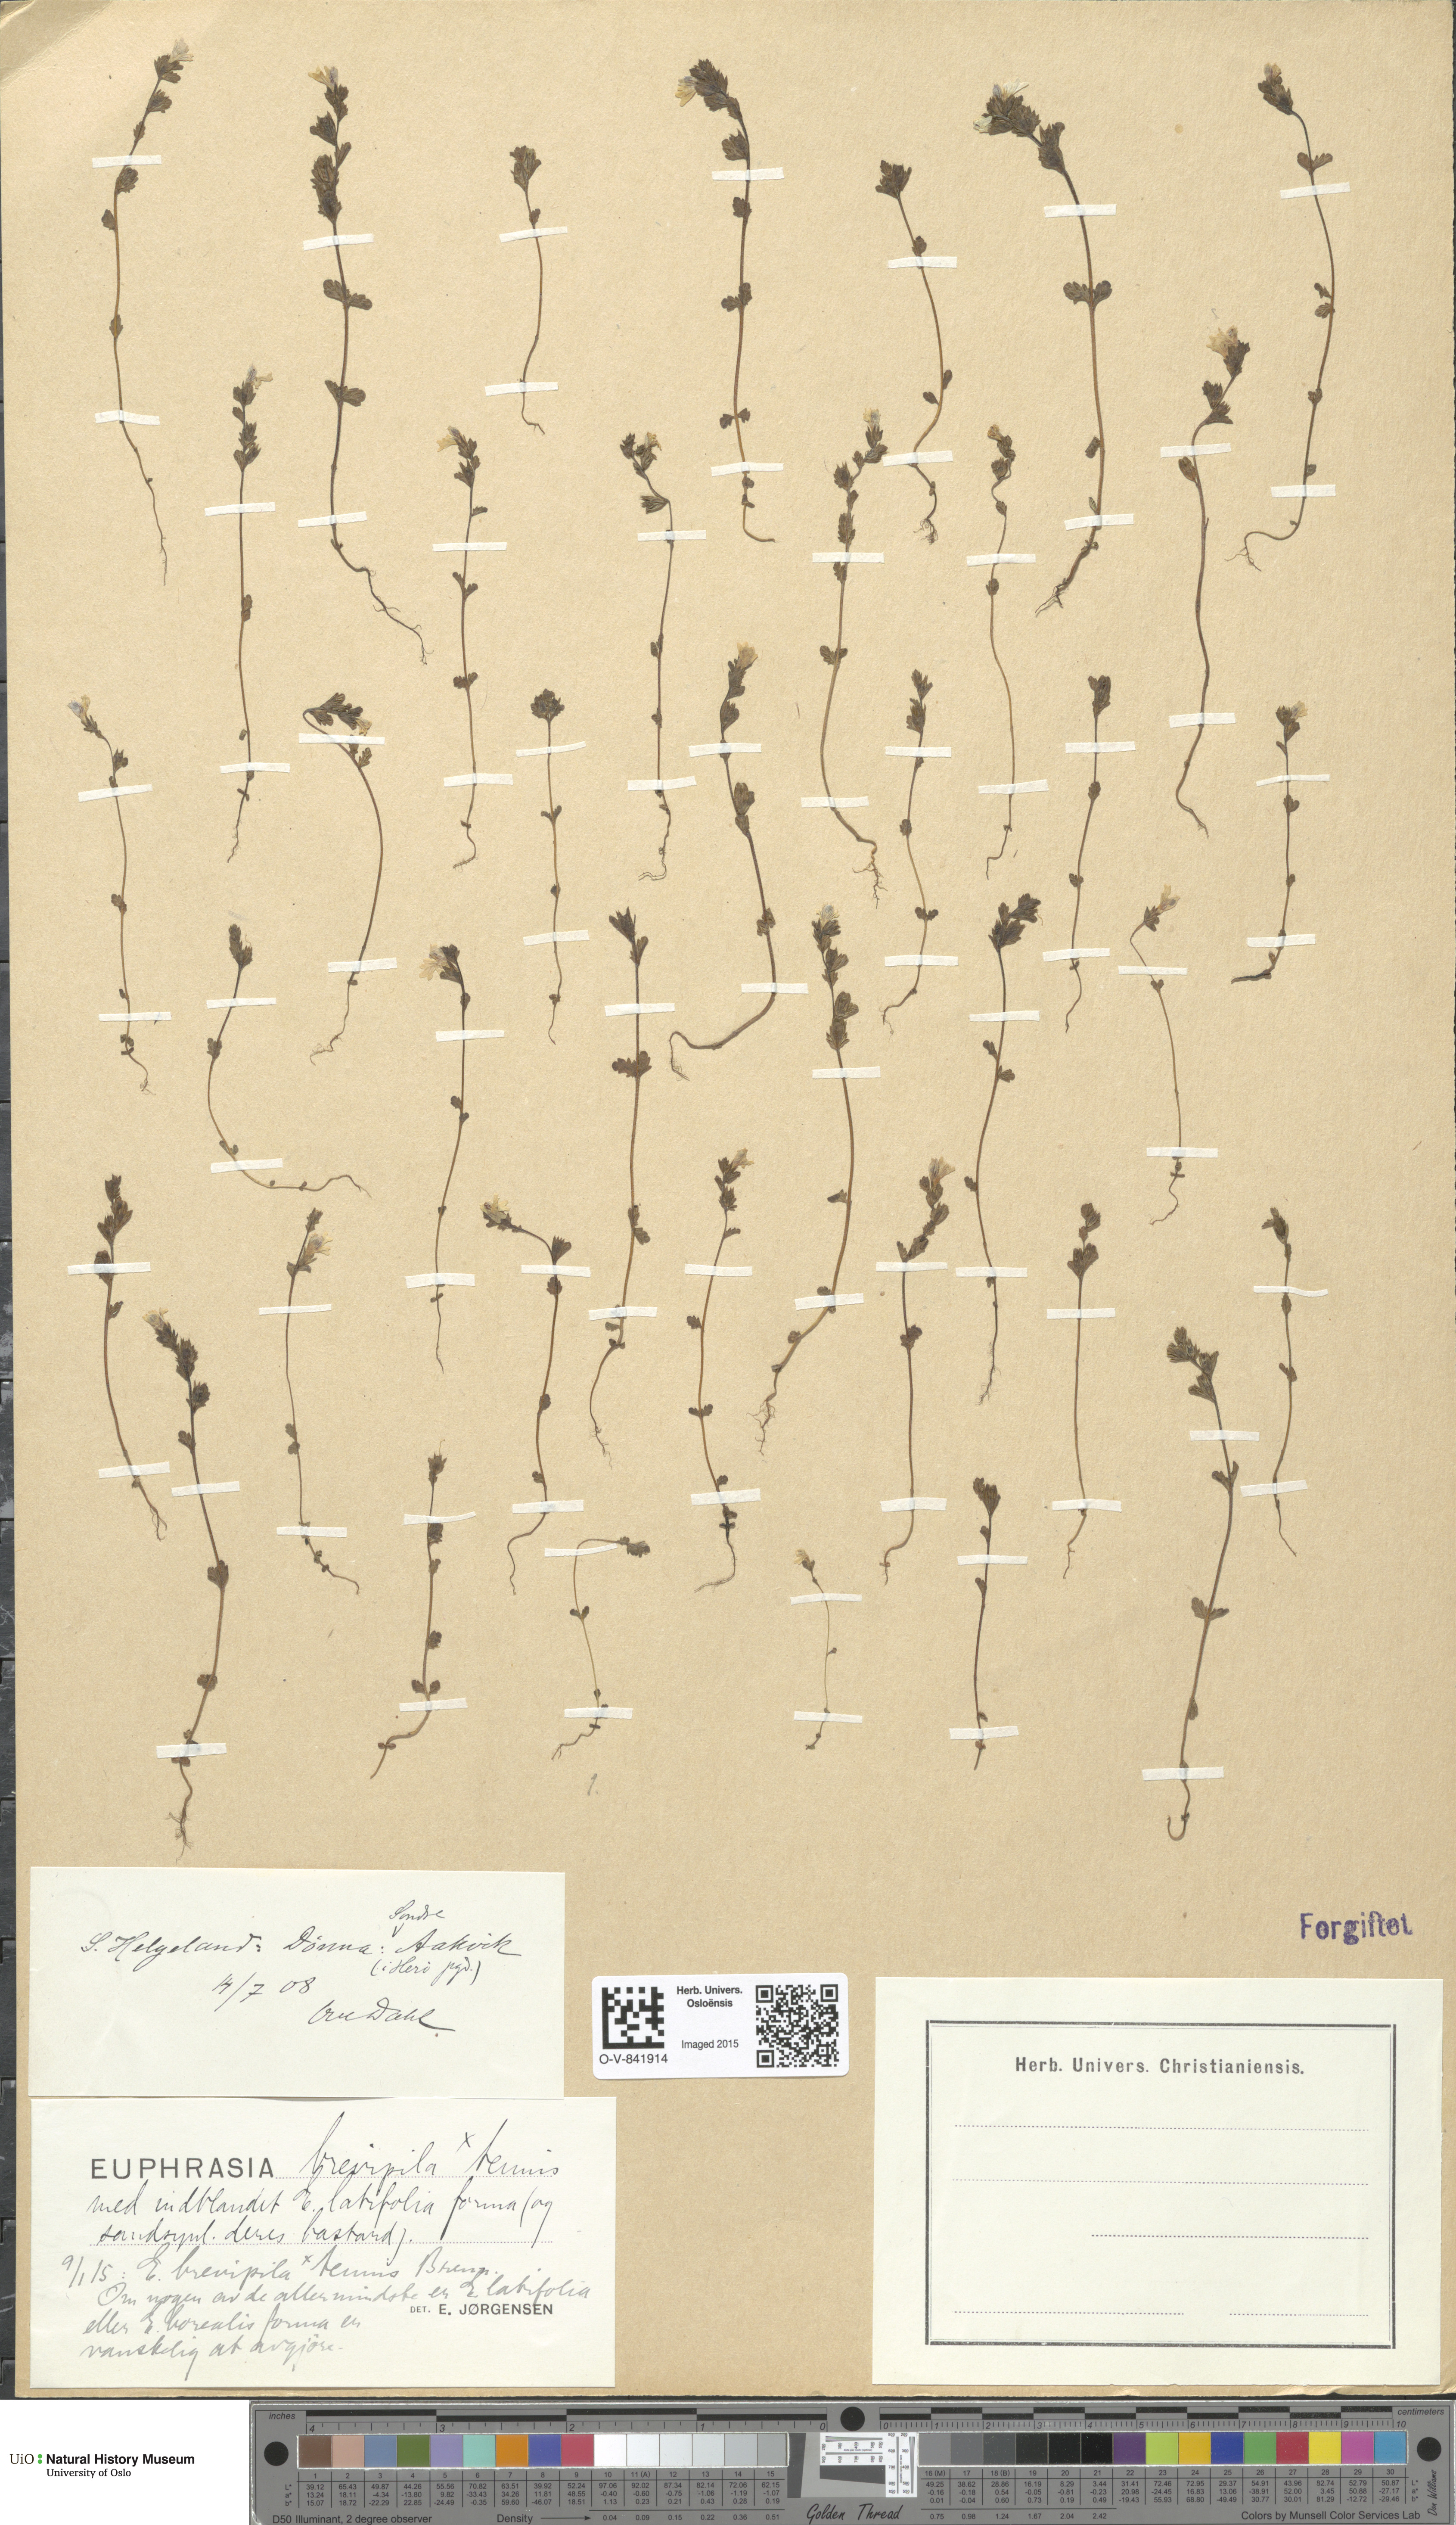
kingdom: Plantae
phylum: Tracheophyta
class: Magnoliopsida
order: Lamiales
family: Orobanchaceae
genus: Euphrasia
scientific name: Euphrasia vernalis
